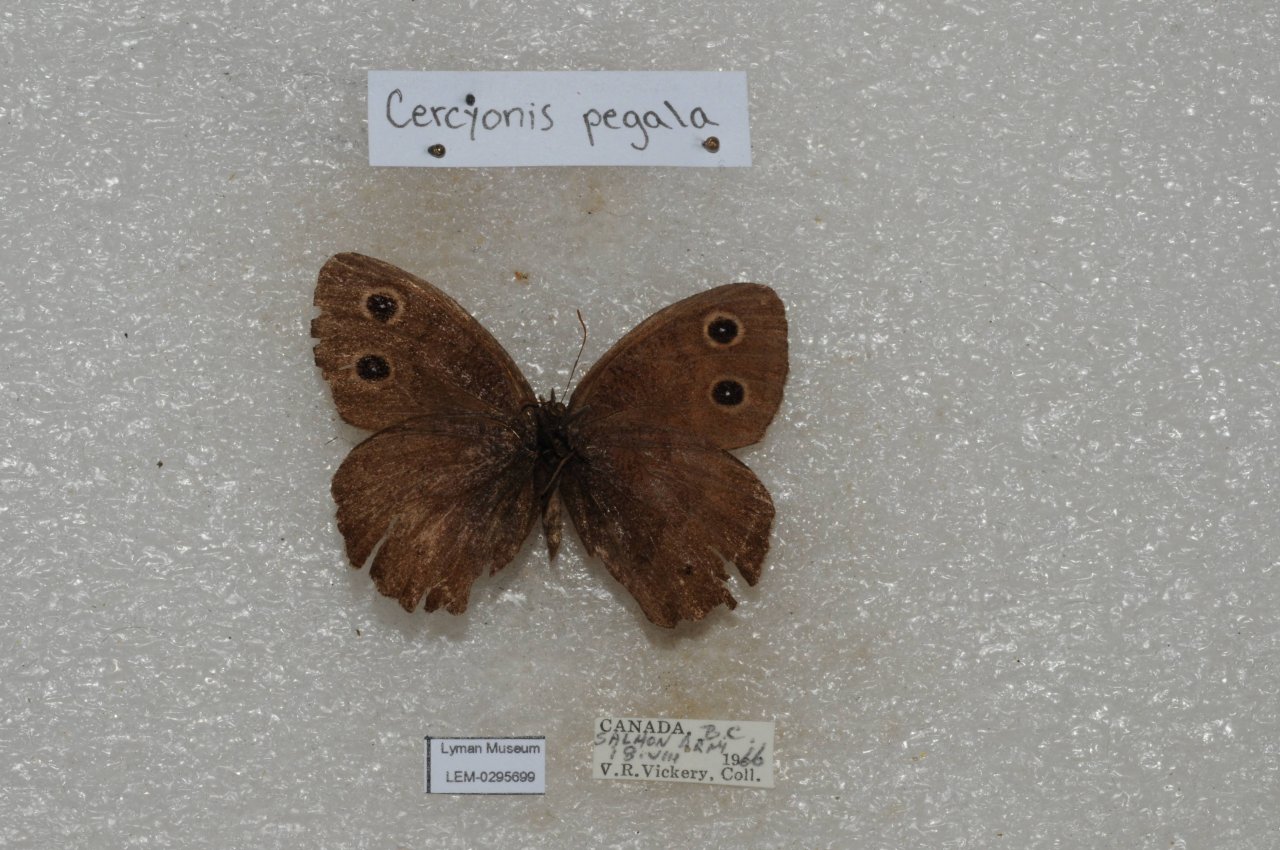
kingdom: Animalia
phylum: Arthropoda
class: Insecta
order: Lepidoptera
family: Nymphalidae
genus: Cercyonis
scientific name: Cercyonis pegala
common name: Common Wood-Nymph
